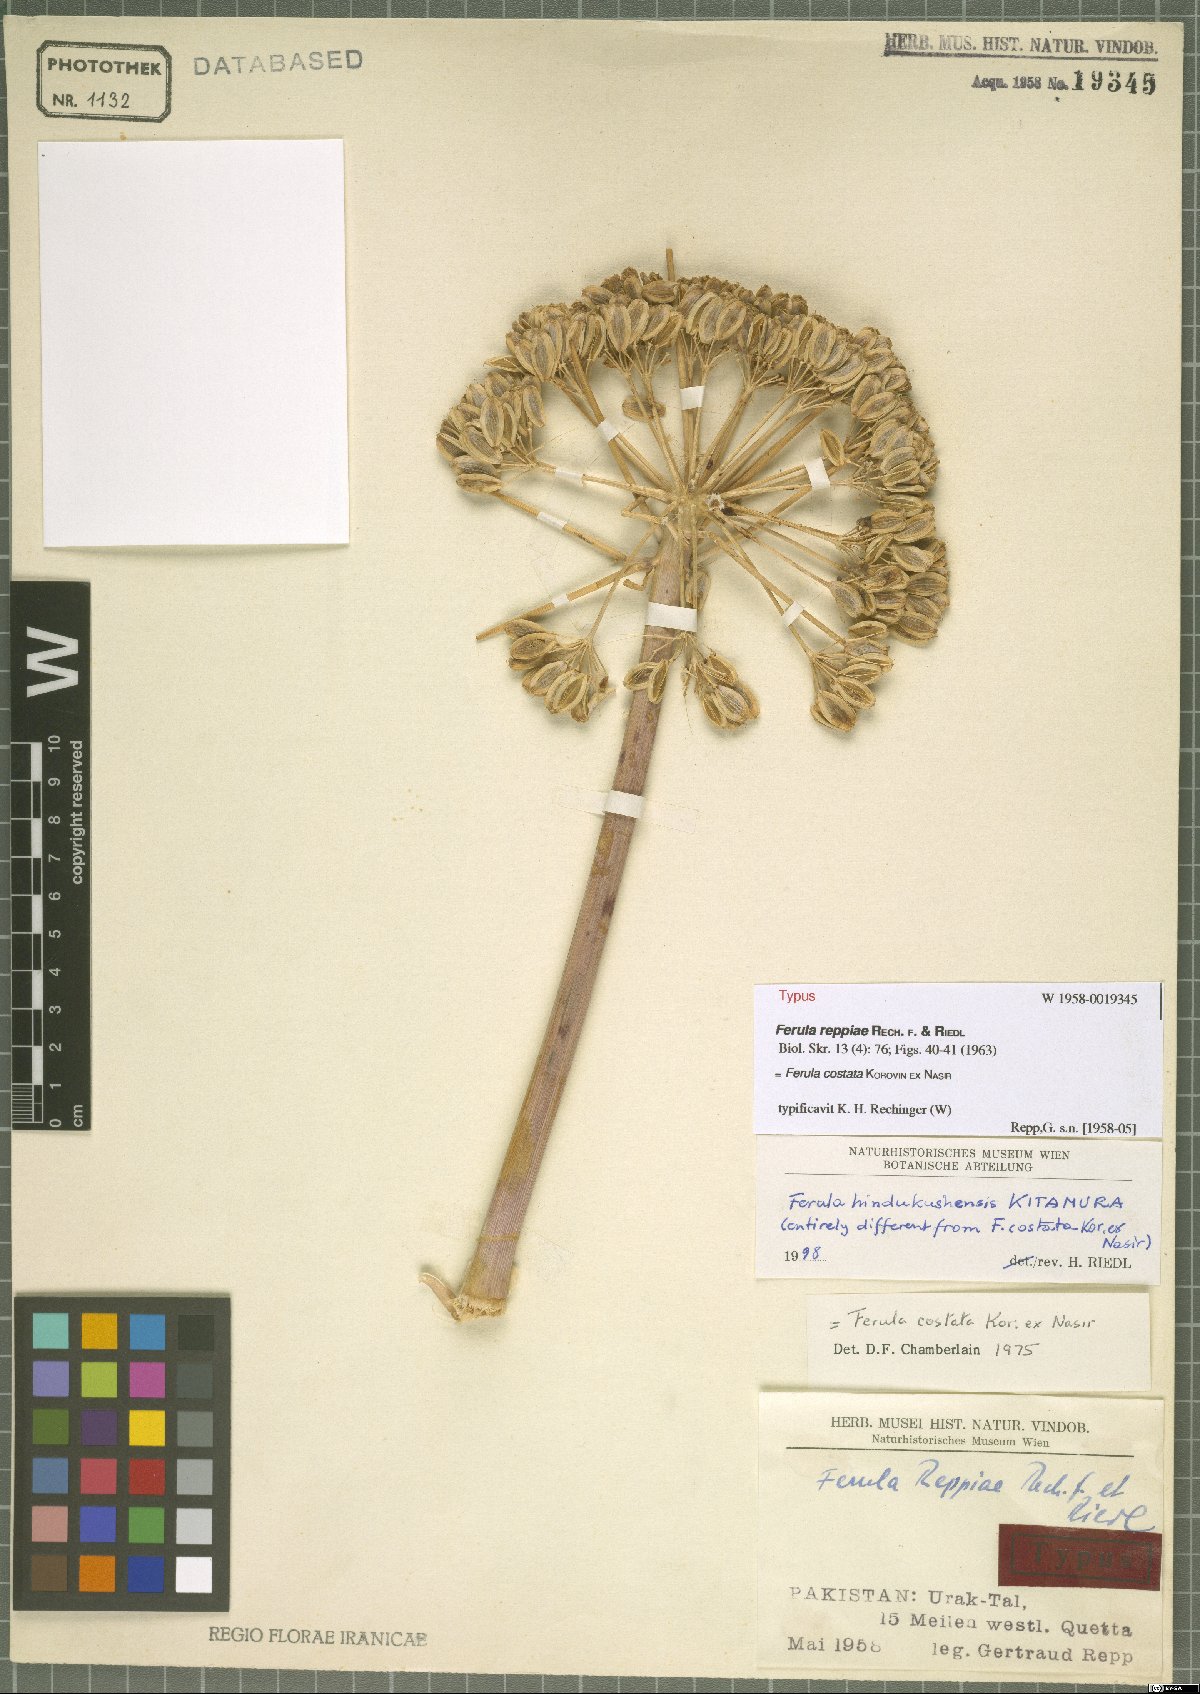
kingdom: Plantae
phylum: Tracheophyta
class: Magnoliopsida
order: Apiales
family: Apiaceae
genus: Ferula
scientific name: Ferula costata
